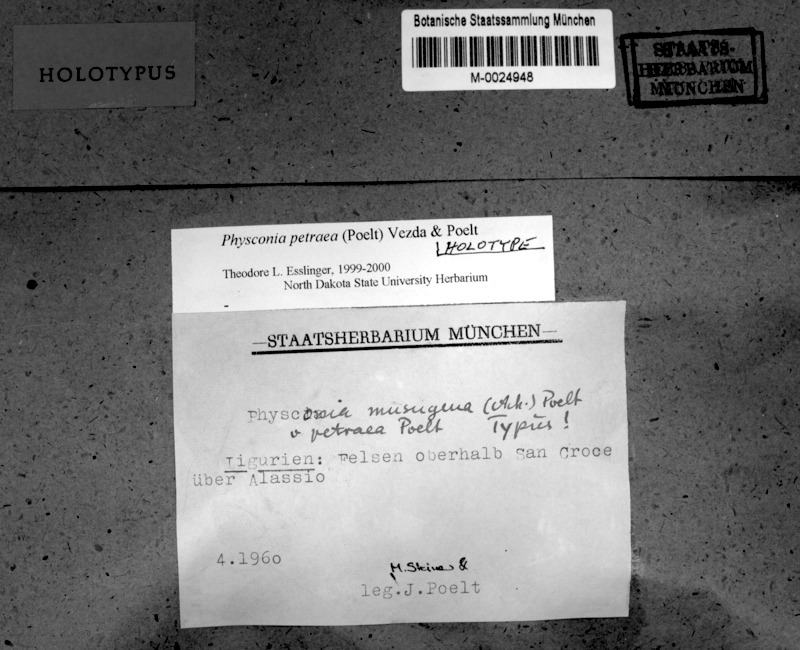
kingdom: Fungi
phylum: Ascomycota
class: Lecanoromycetes
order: Caliciales
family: Physciaceae
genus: Physconia
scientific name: Physconia petraea
